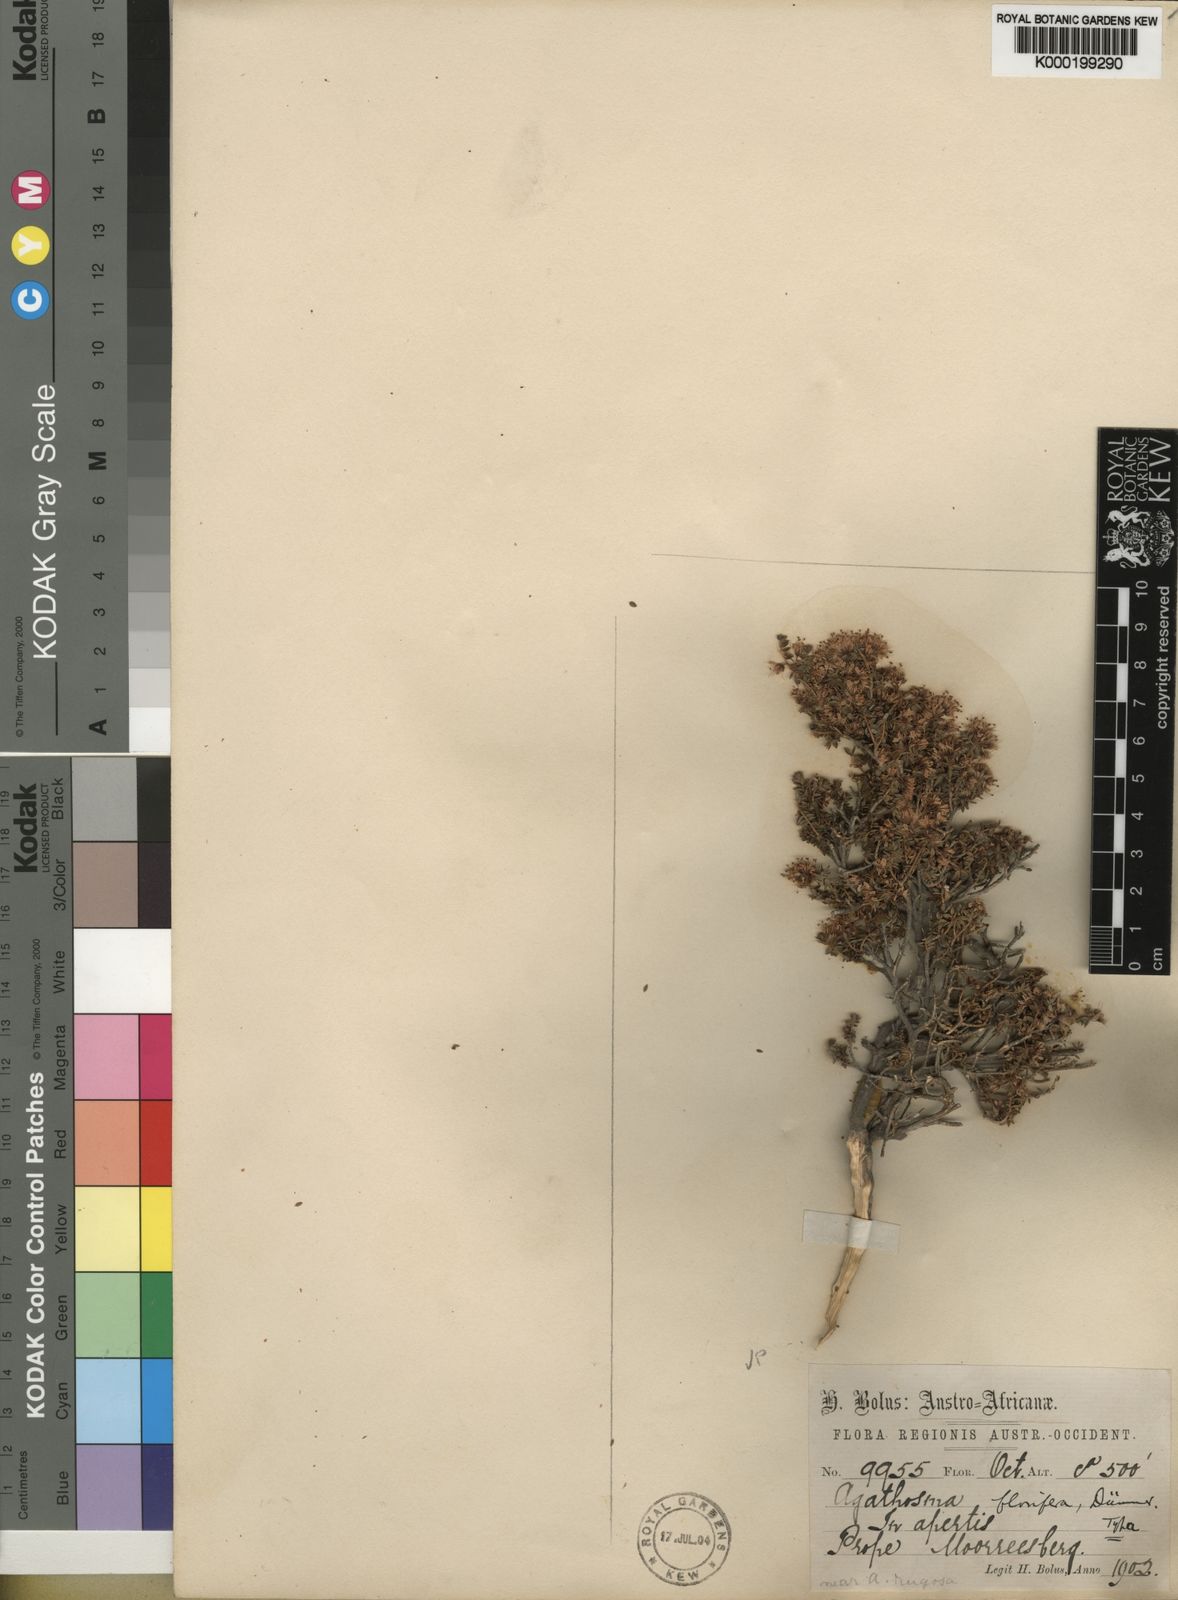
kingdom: Plantae
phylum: Tracheophyta
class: Magnoliopsida
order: Sapindales
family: Rutaceae
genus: Agathosma
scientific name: Agathosma latipetala
